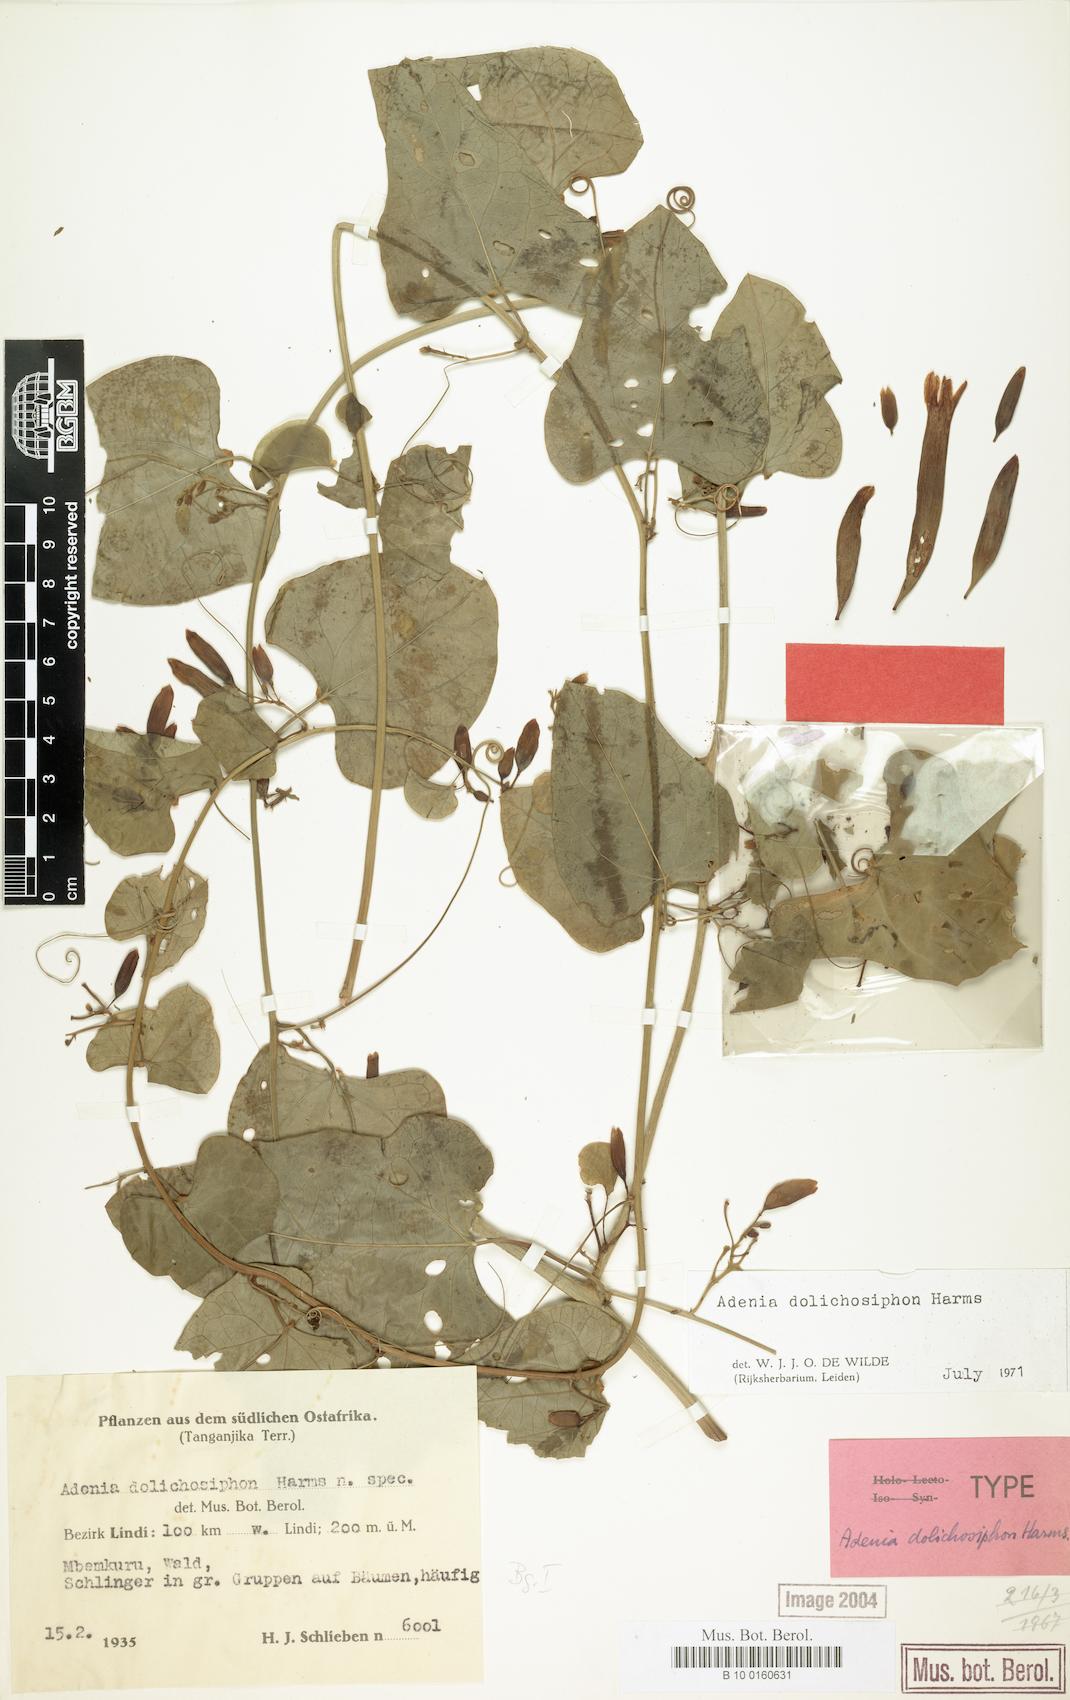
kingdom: Plantae
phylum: Tracheophyta
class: Magnoliopsida
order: Malpighiales
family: Passifloraceae
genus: Adenia
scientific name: Adenia dolichosiphon
